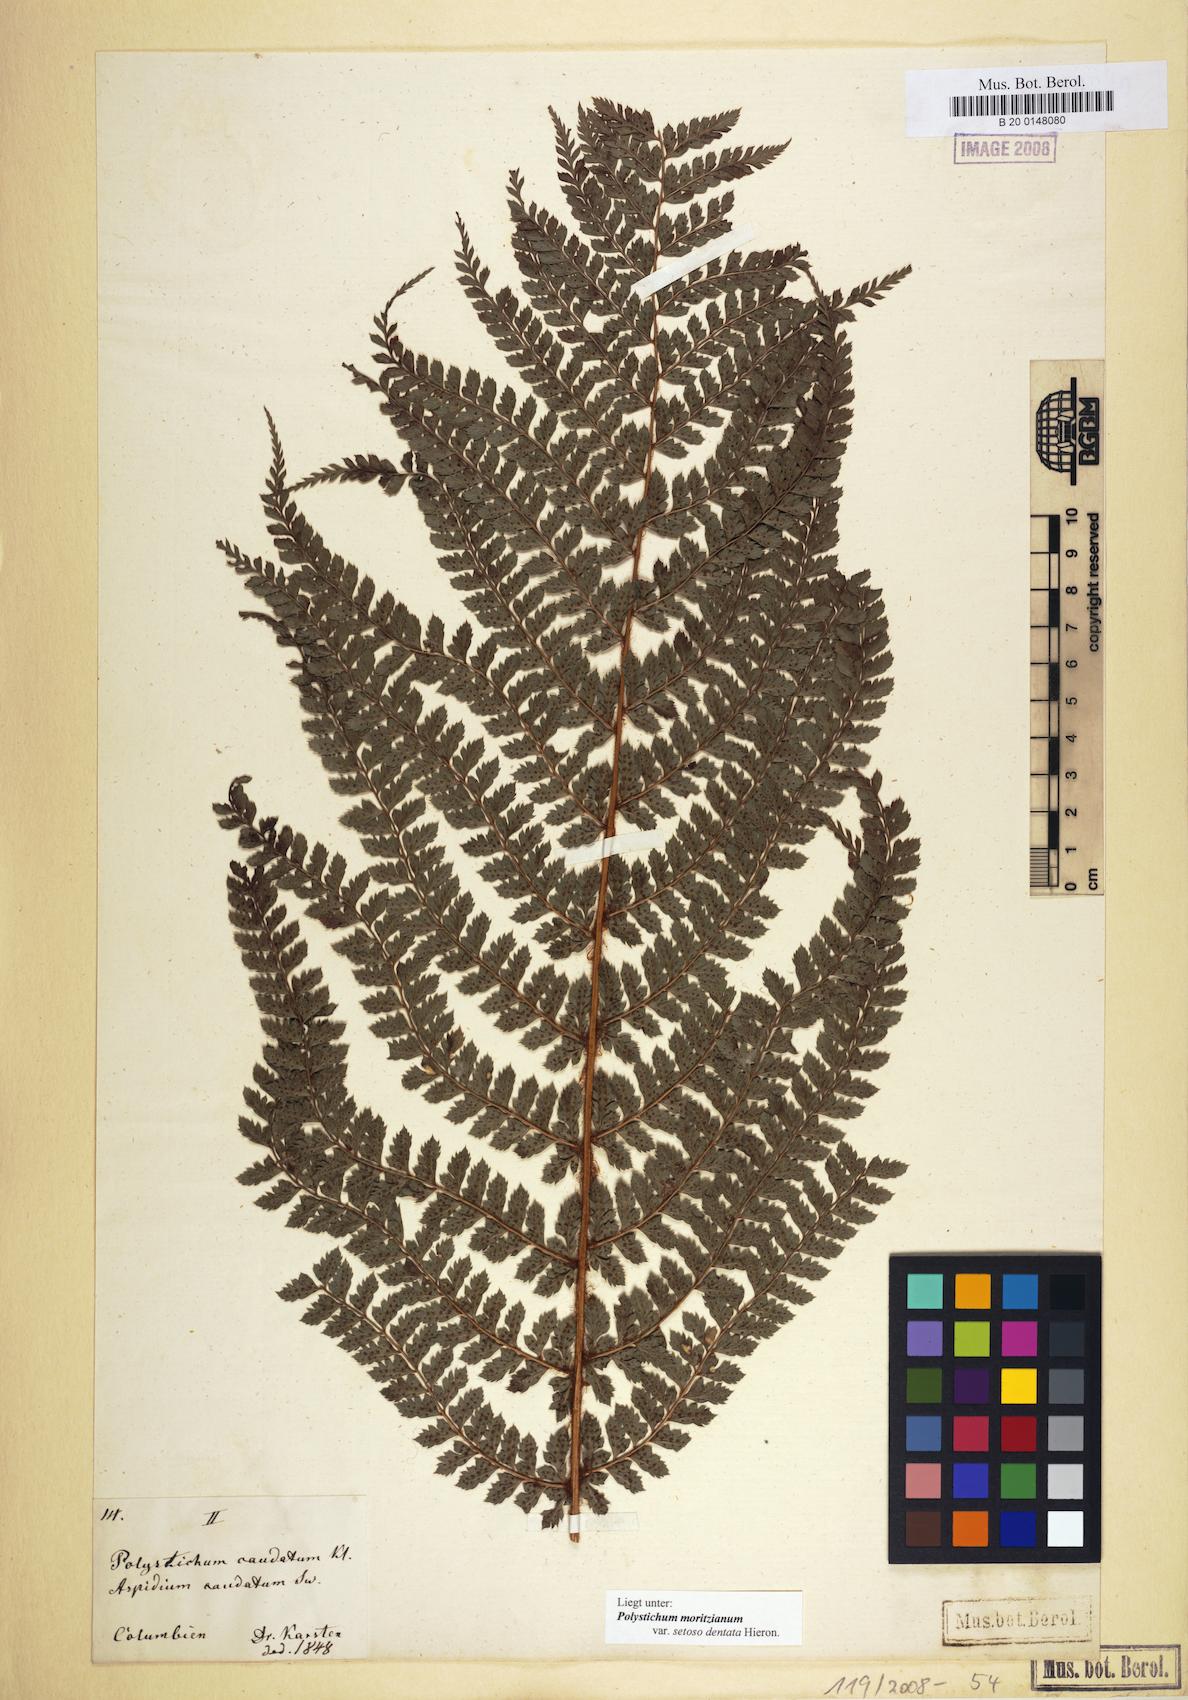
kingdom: Plantae
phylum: Tracheophyta
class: Polypodiopsida
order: Polypodiales
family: Dryopteridaceae
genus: Polystichum
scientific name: Polystichum muricatum
